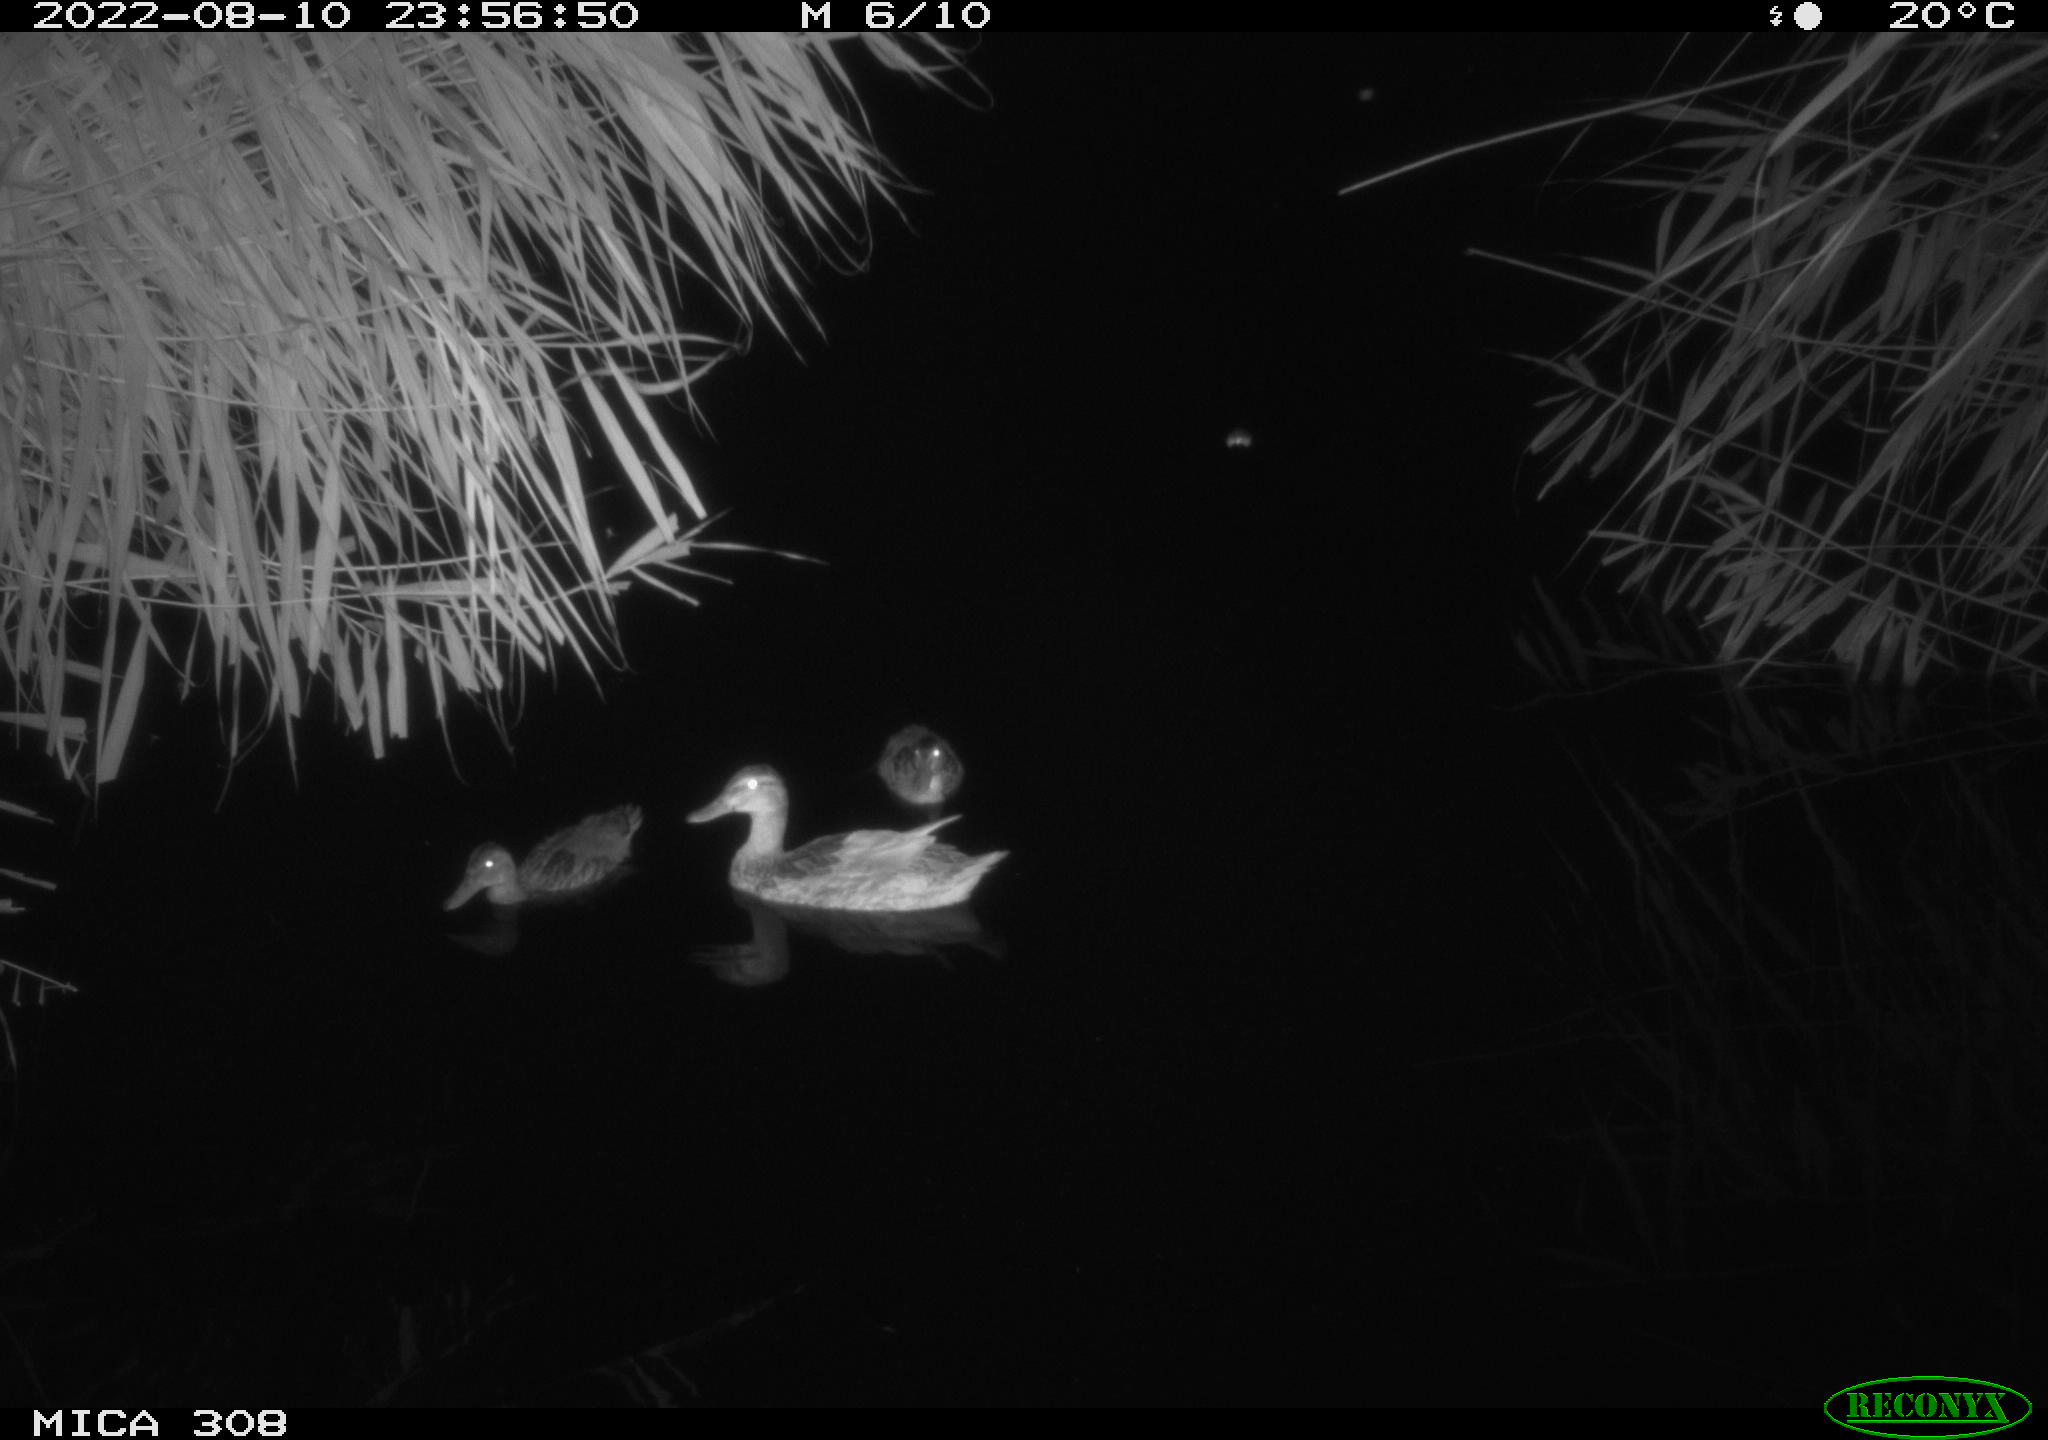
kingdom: Animalia
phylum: Chordata
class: Aves
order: Anseriformes
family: Anatidae
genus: Anas
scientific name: Anas platyrhynchos
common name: Mallard
